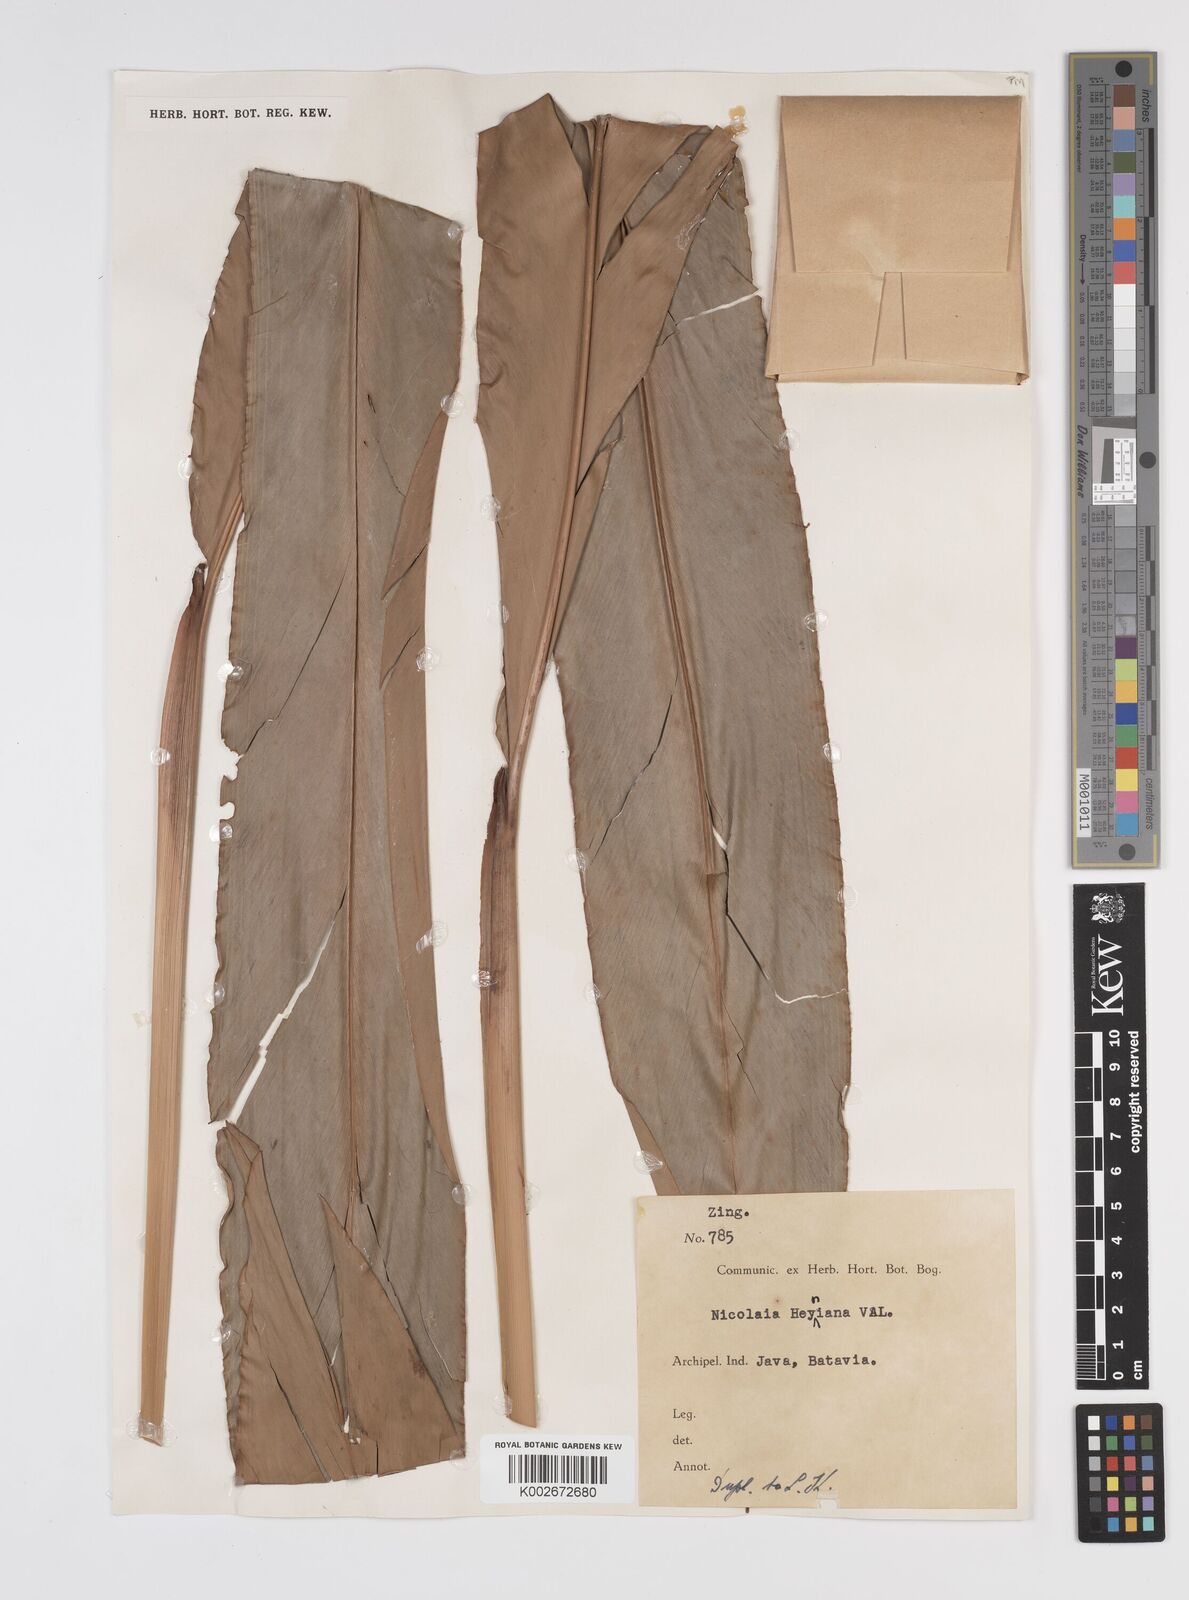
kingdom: Plantae
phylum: Tracheophyta
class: Liliopsida
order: Zingiberales
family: Zingiberaceae
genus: Etlingera
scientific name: Etlingera heyneana
